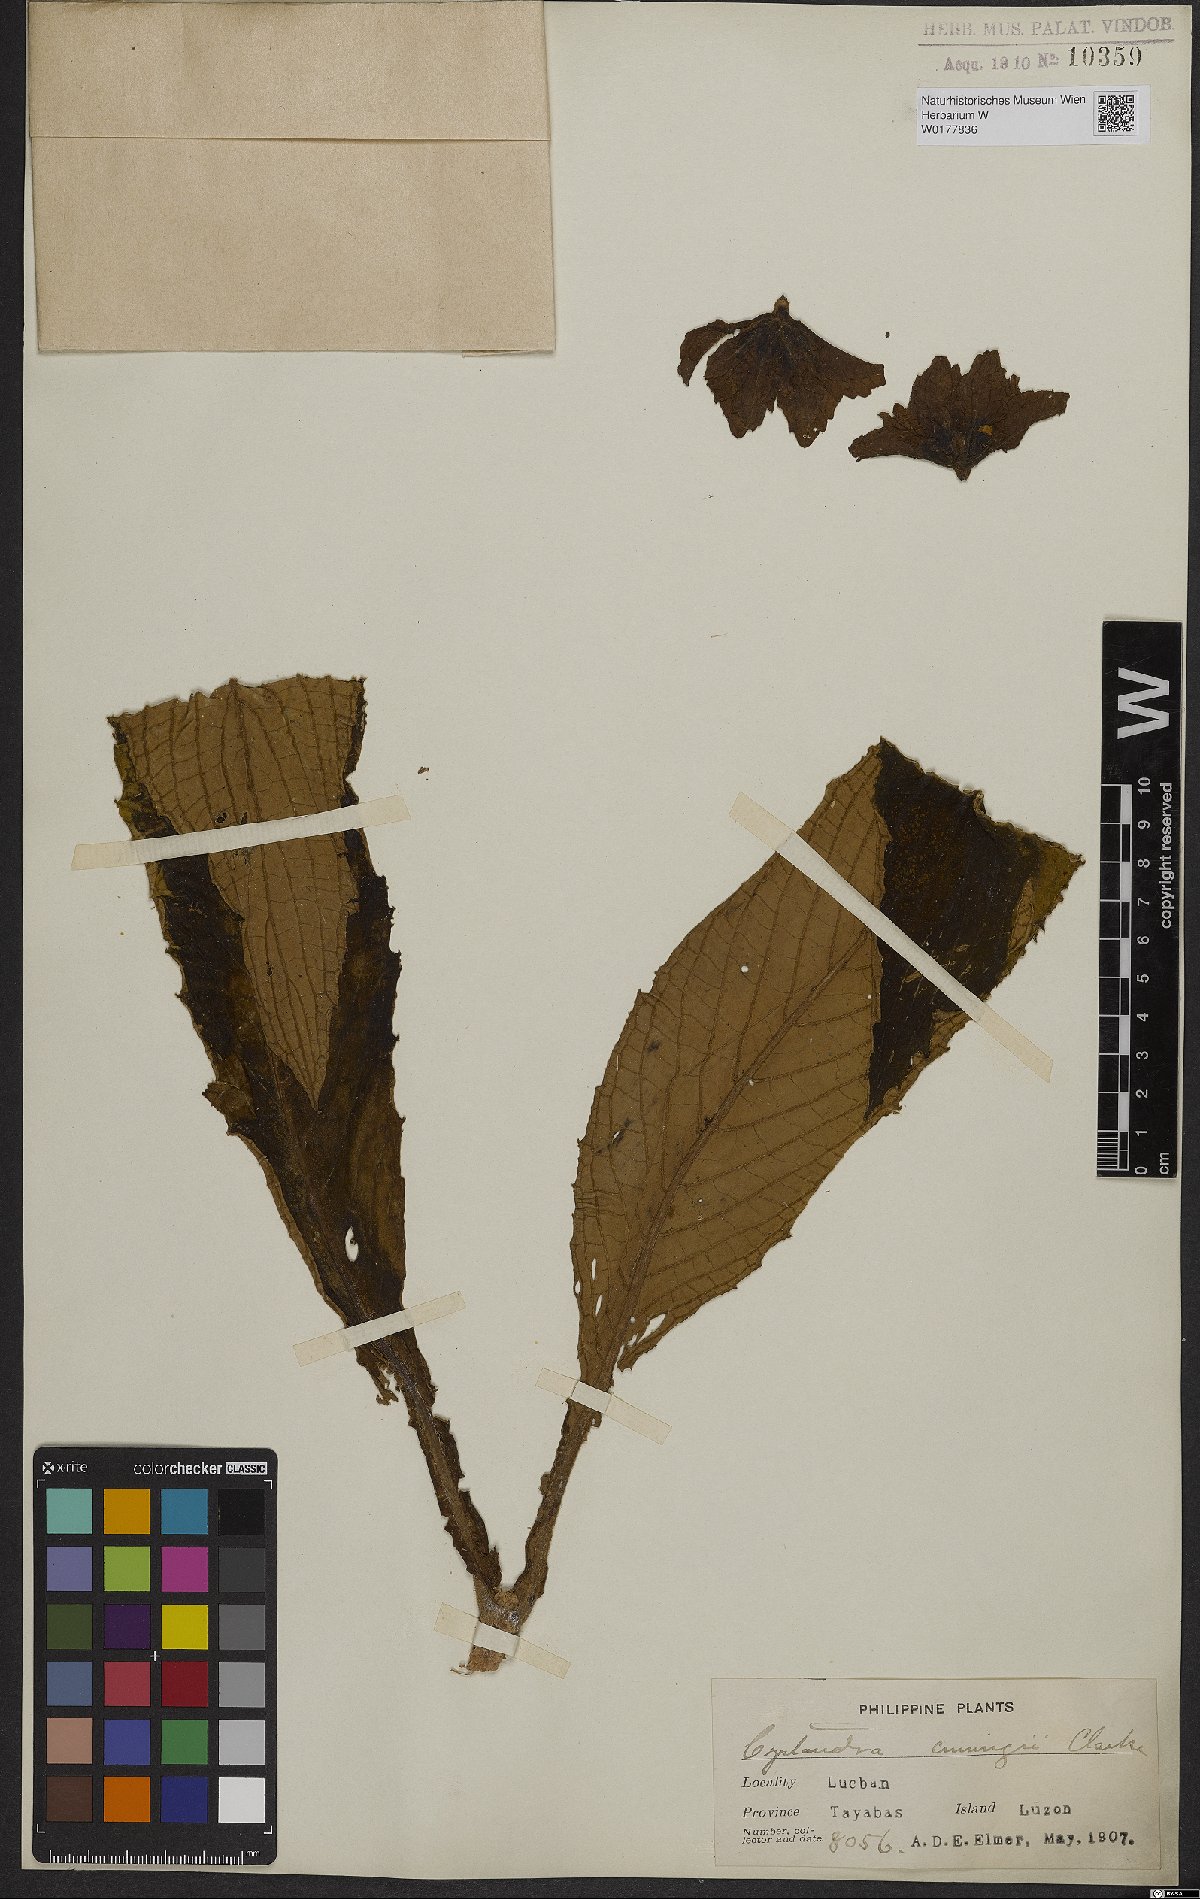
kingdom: Plantae
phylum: Tracheophyta
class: Magnoliopsida
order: Lamiales
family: Gesneriaceae
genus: Cyrtandra
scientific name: Cyrtandra
